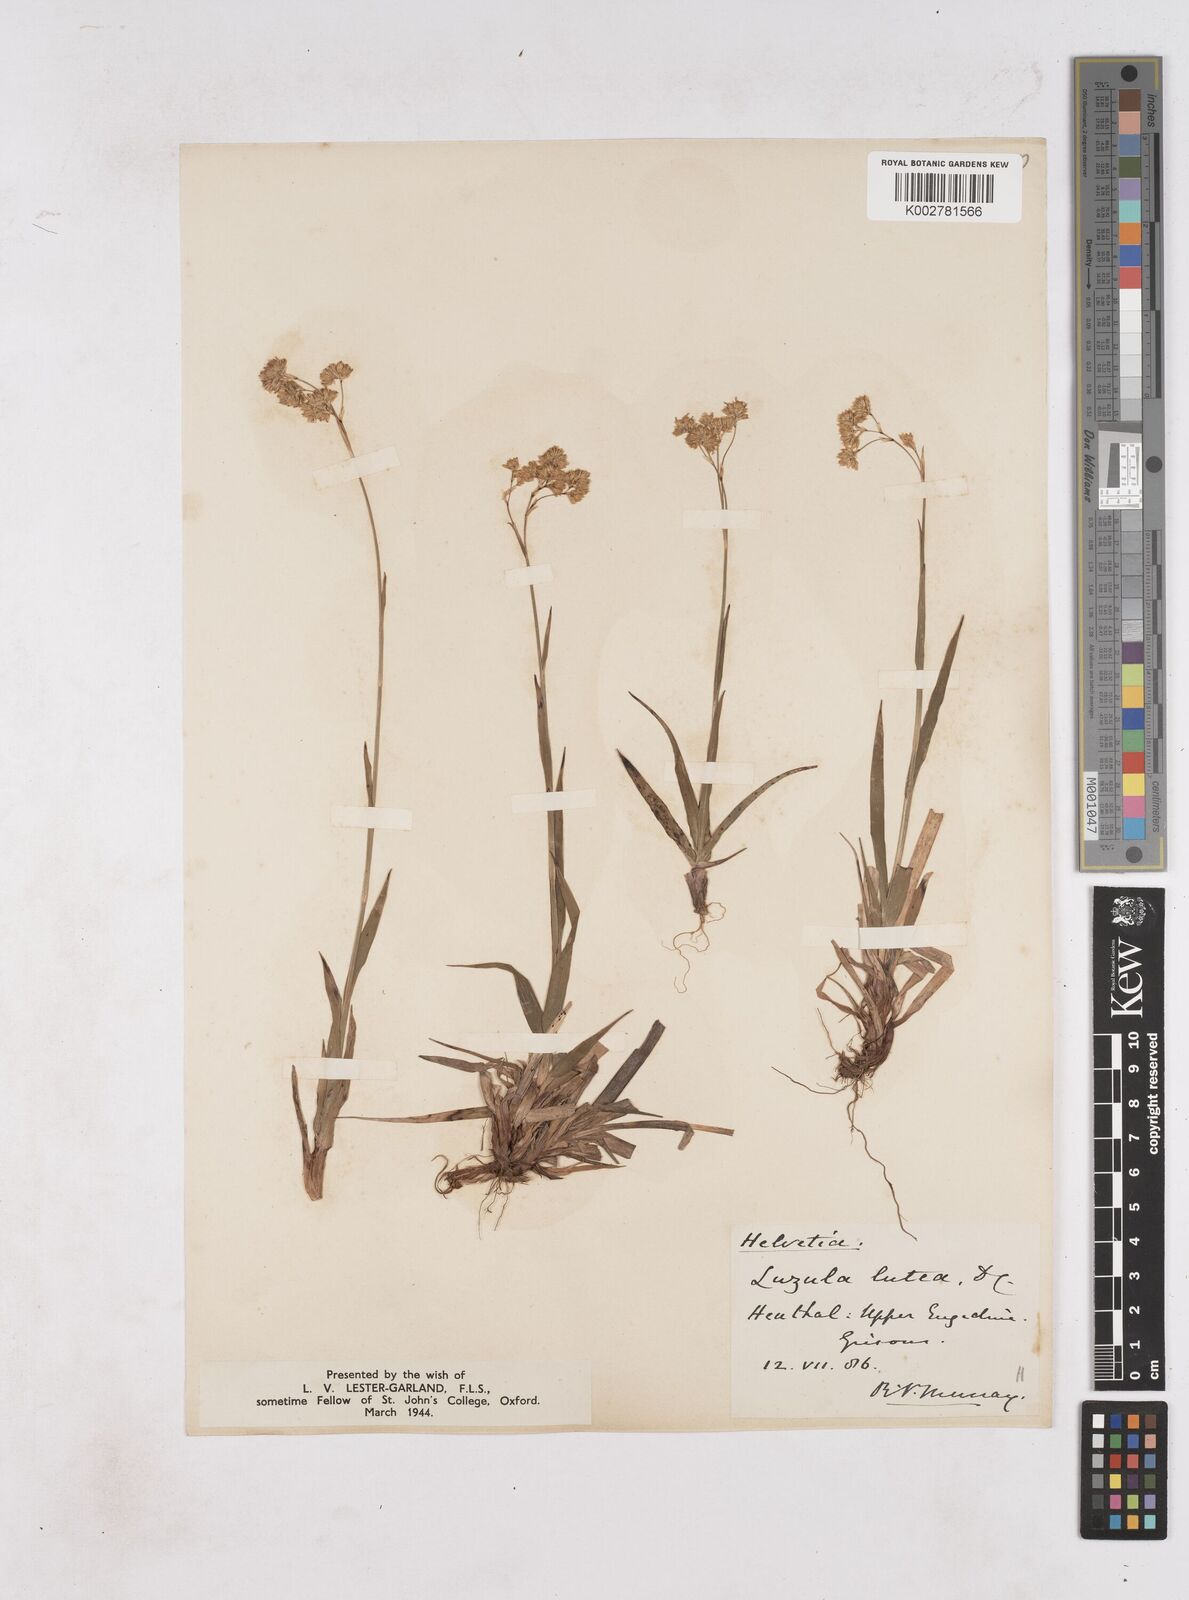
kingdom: Plantae
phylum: Tracheophyta
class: Liliopsida
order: Poales
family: Juncaceae
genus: Luzula
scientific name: Luzula lutea
